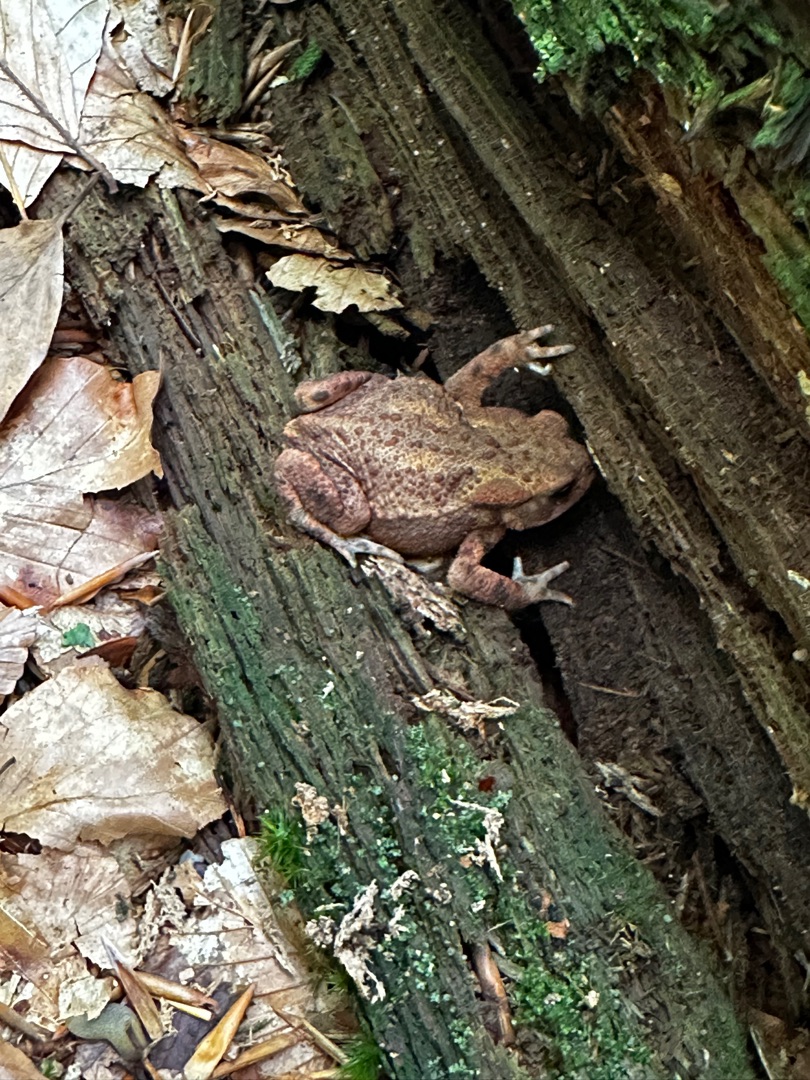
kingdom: Animalia
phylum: Chordata
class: Amphibia
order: Anura
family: Bufonidae
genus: Bufo
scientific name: Bufo bufo
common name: Skrubtudse
